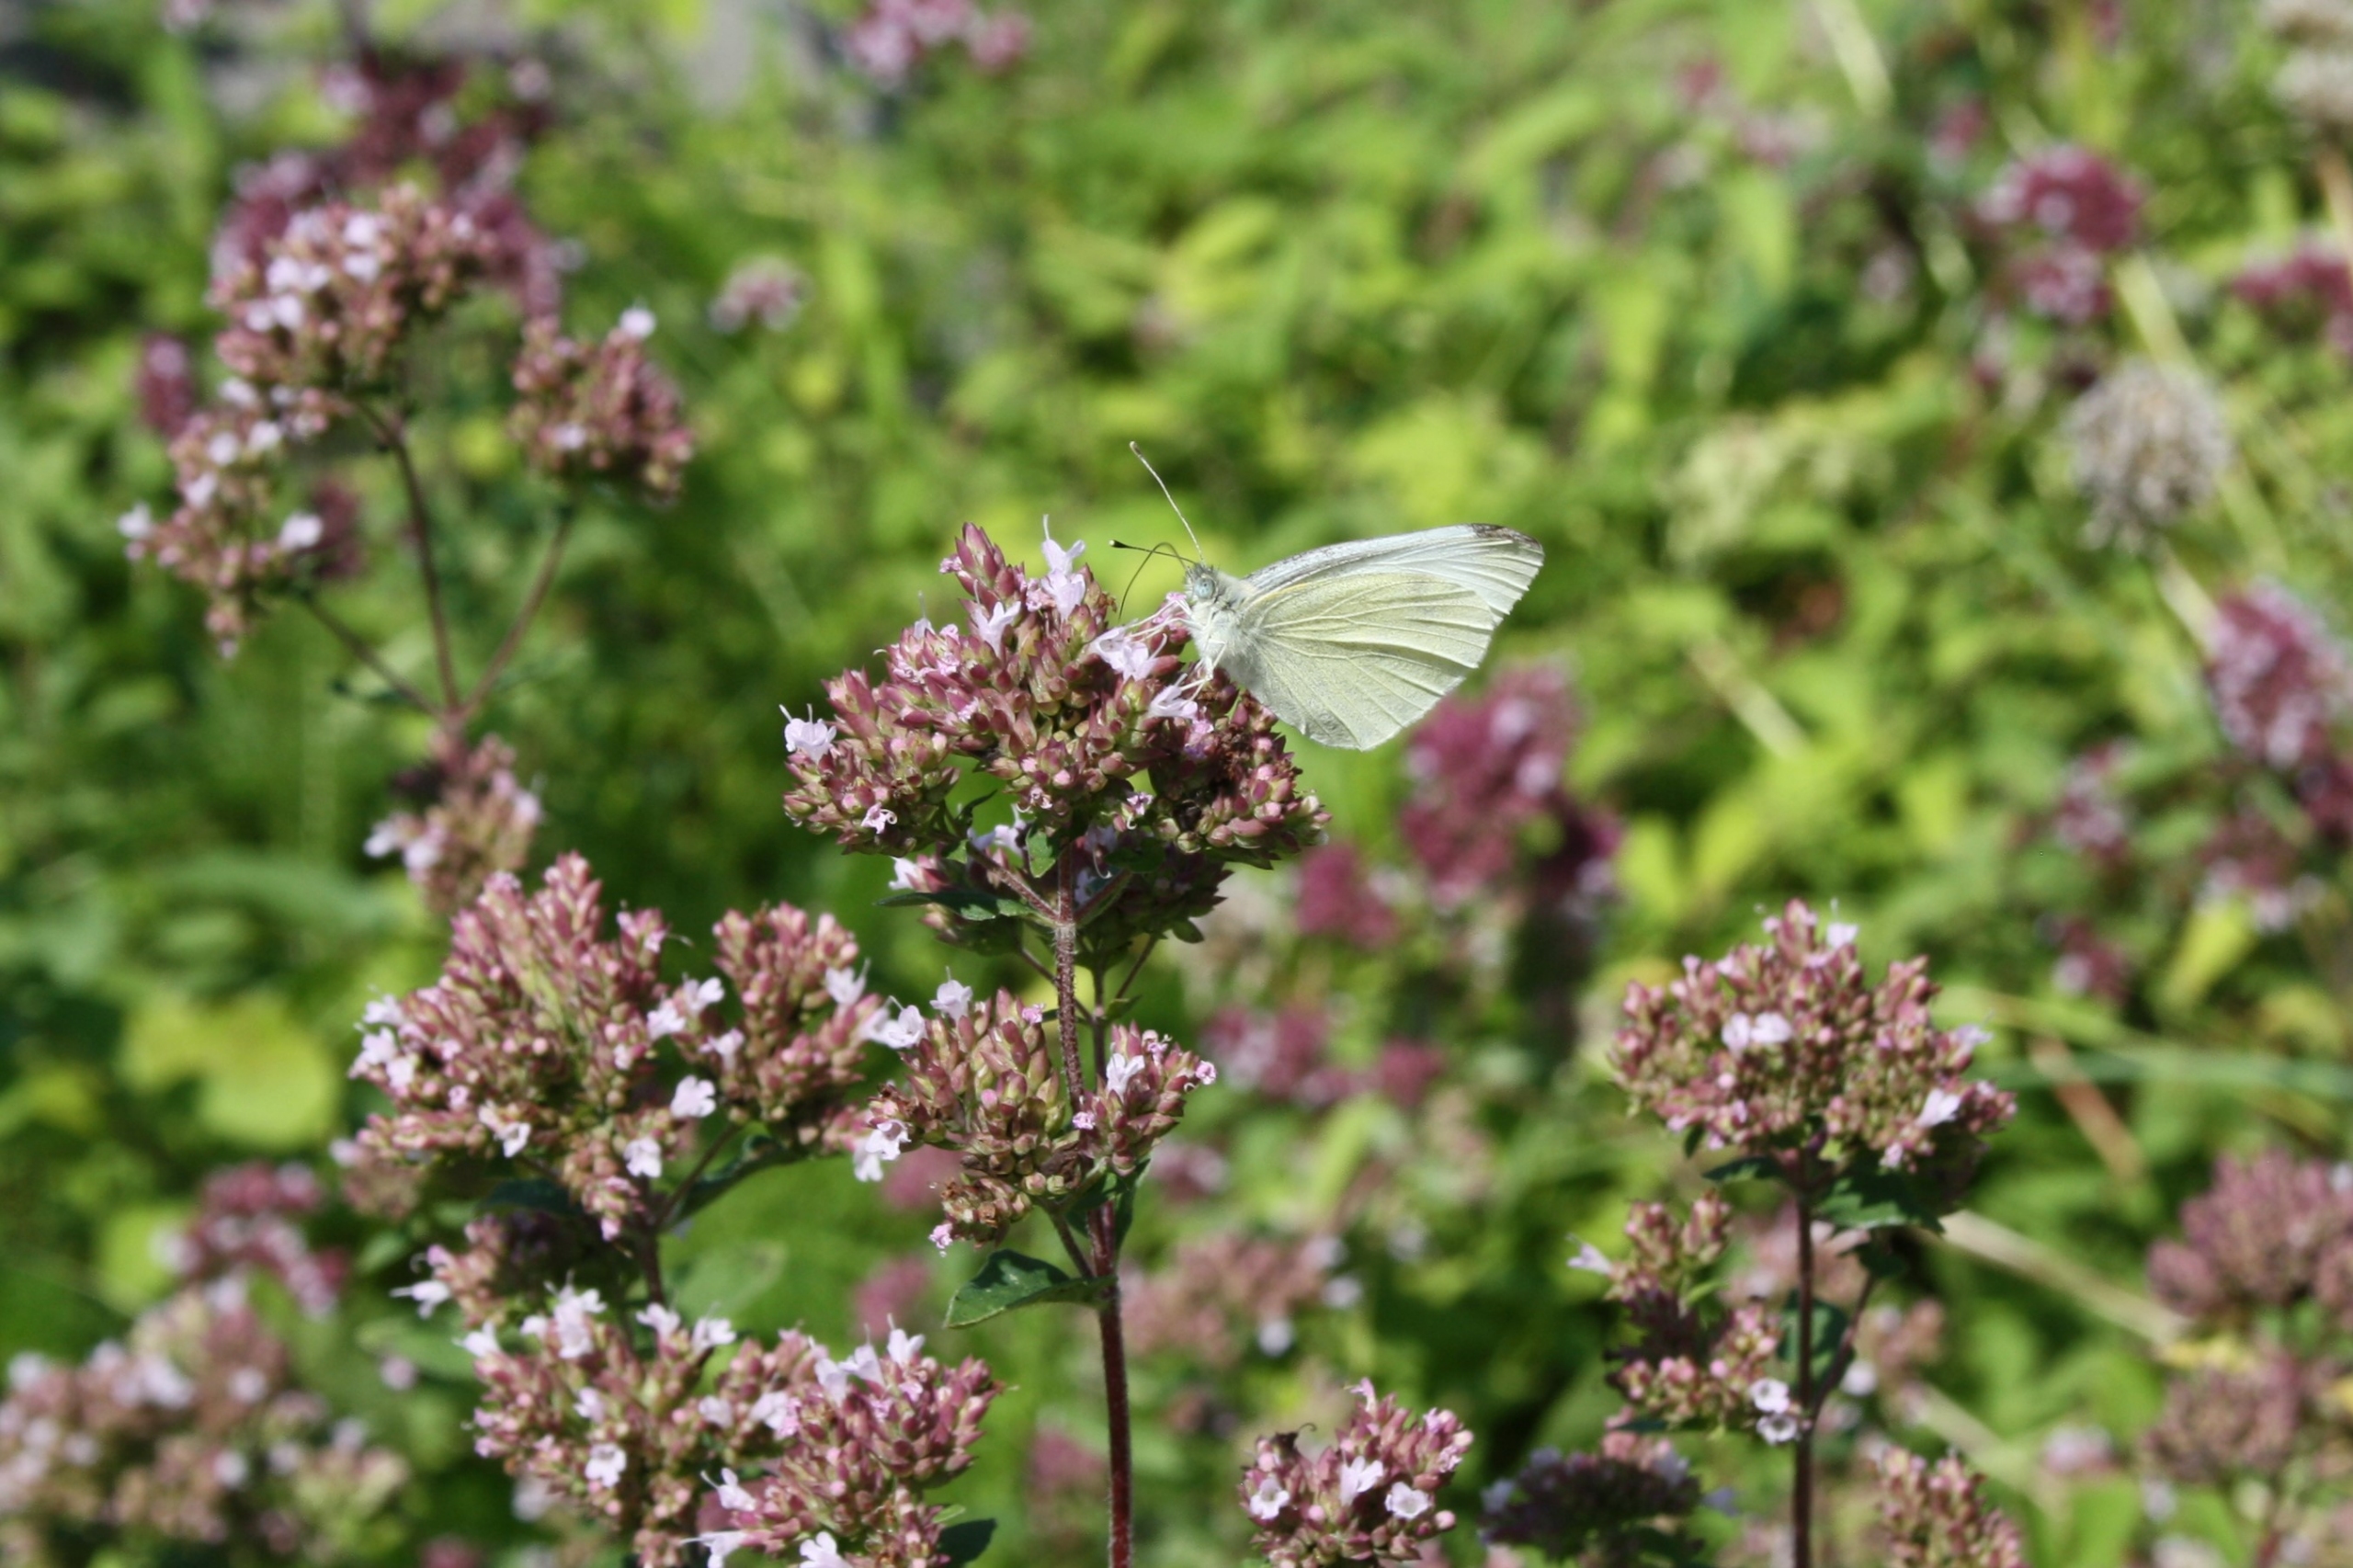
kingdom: Animalia
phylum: Arthropoda
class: Insecta
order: Lepidoptera
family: Pieridae
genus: Pieris
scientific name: Pieris rapae
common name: Lille kålsommerfugl
